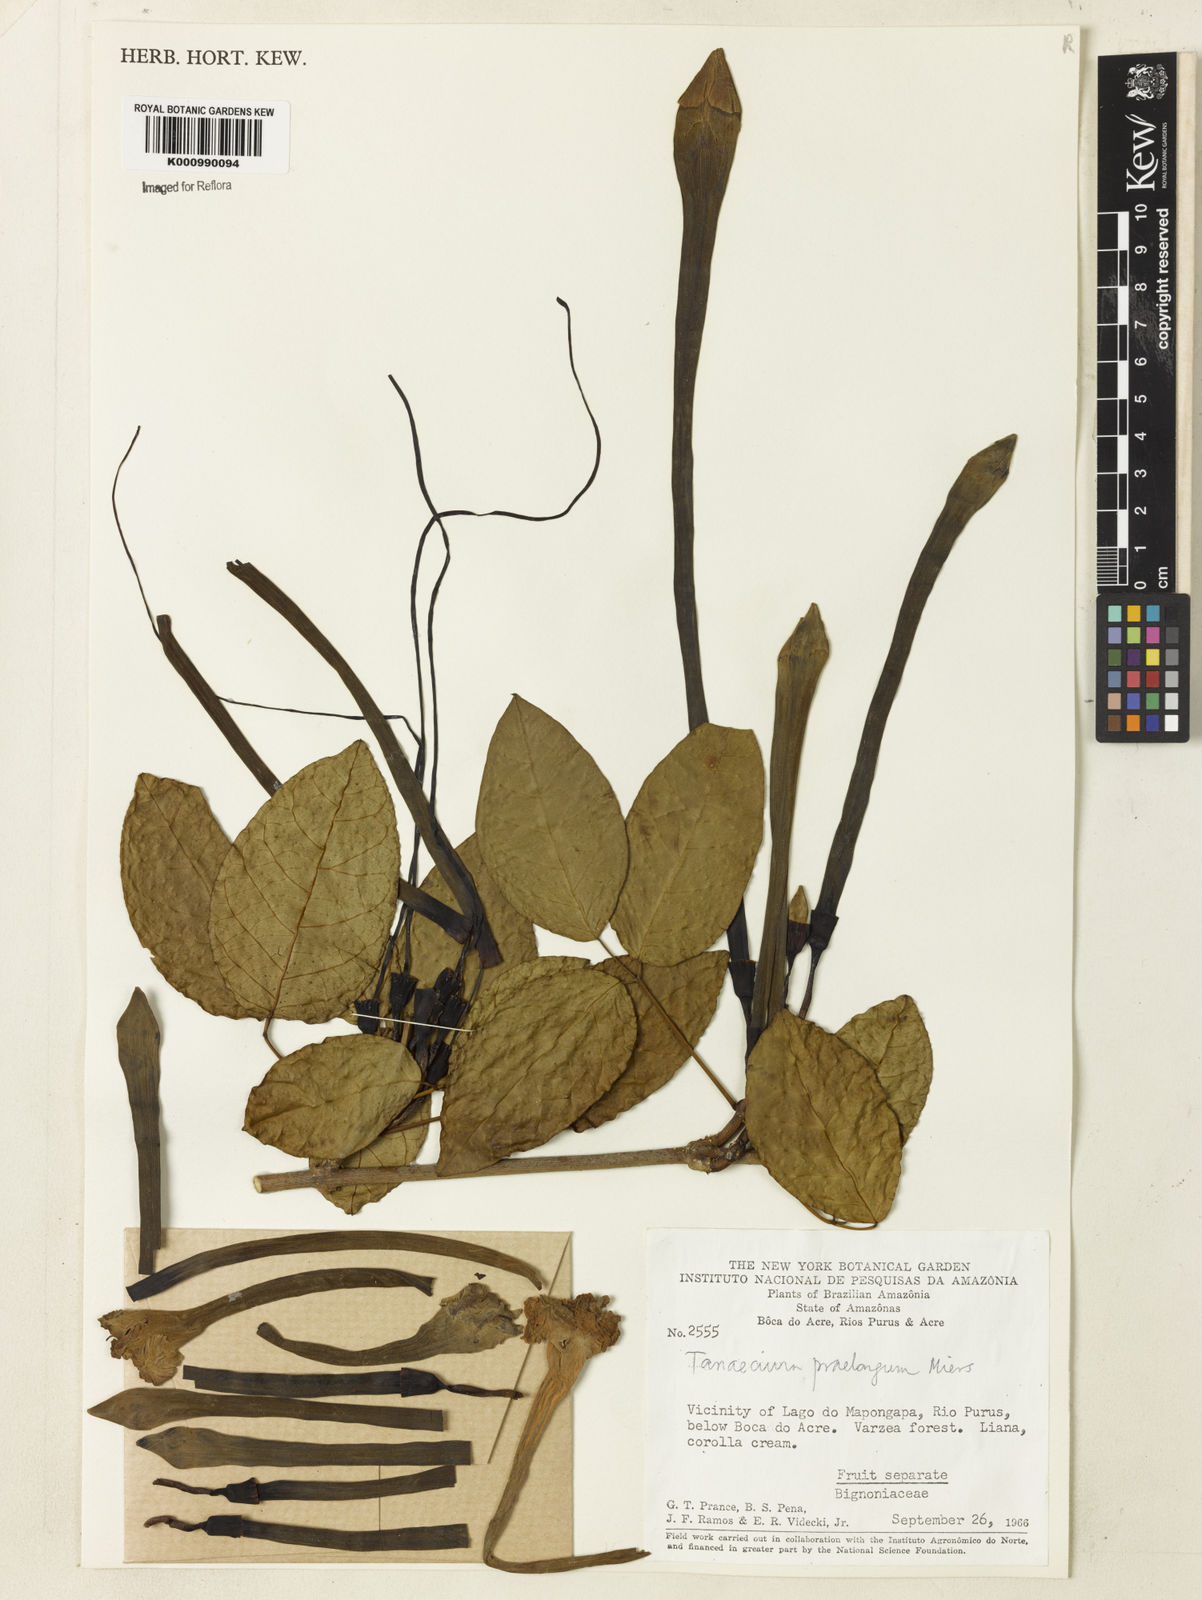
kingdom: Plantae
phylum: Tracheophyta
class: Magnoliopsida
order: Lamiales
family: Bignoniaceae
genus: Tanaecium
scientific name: Tanaecium jaroba
